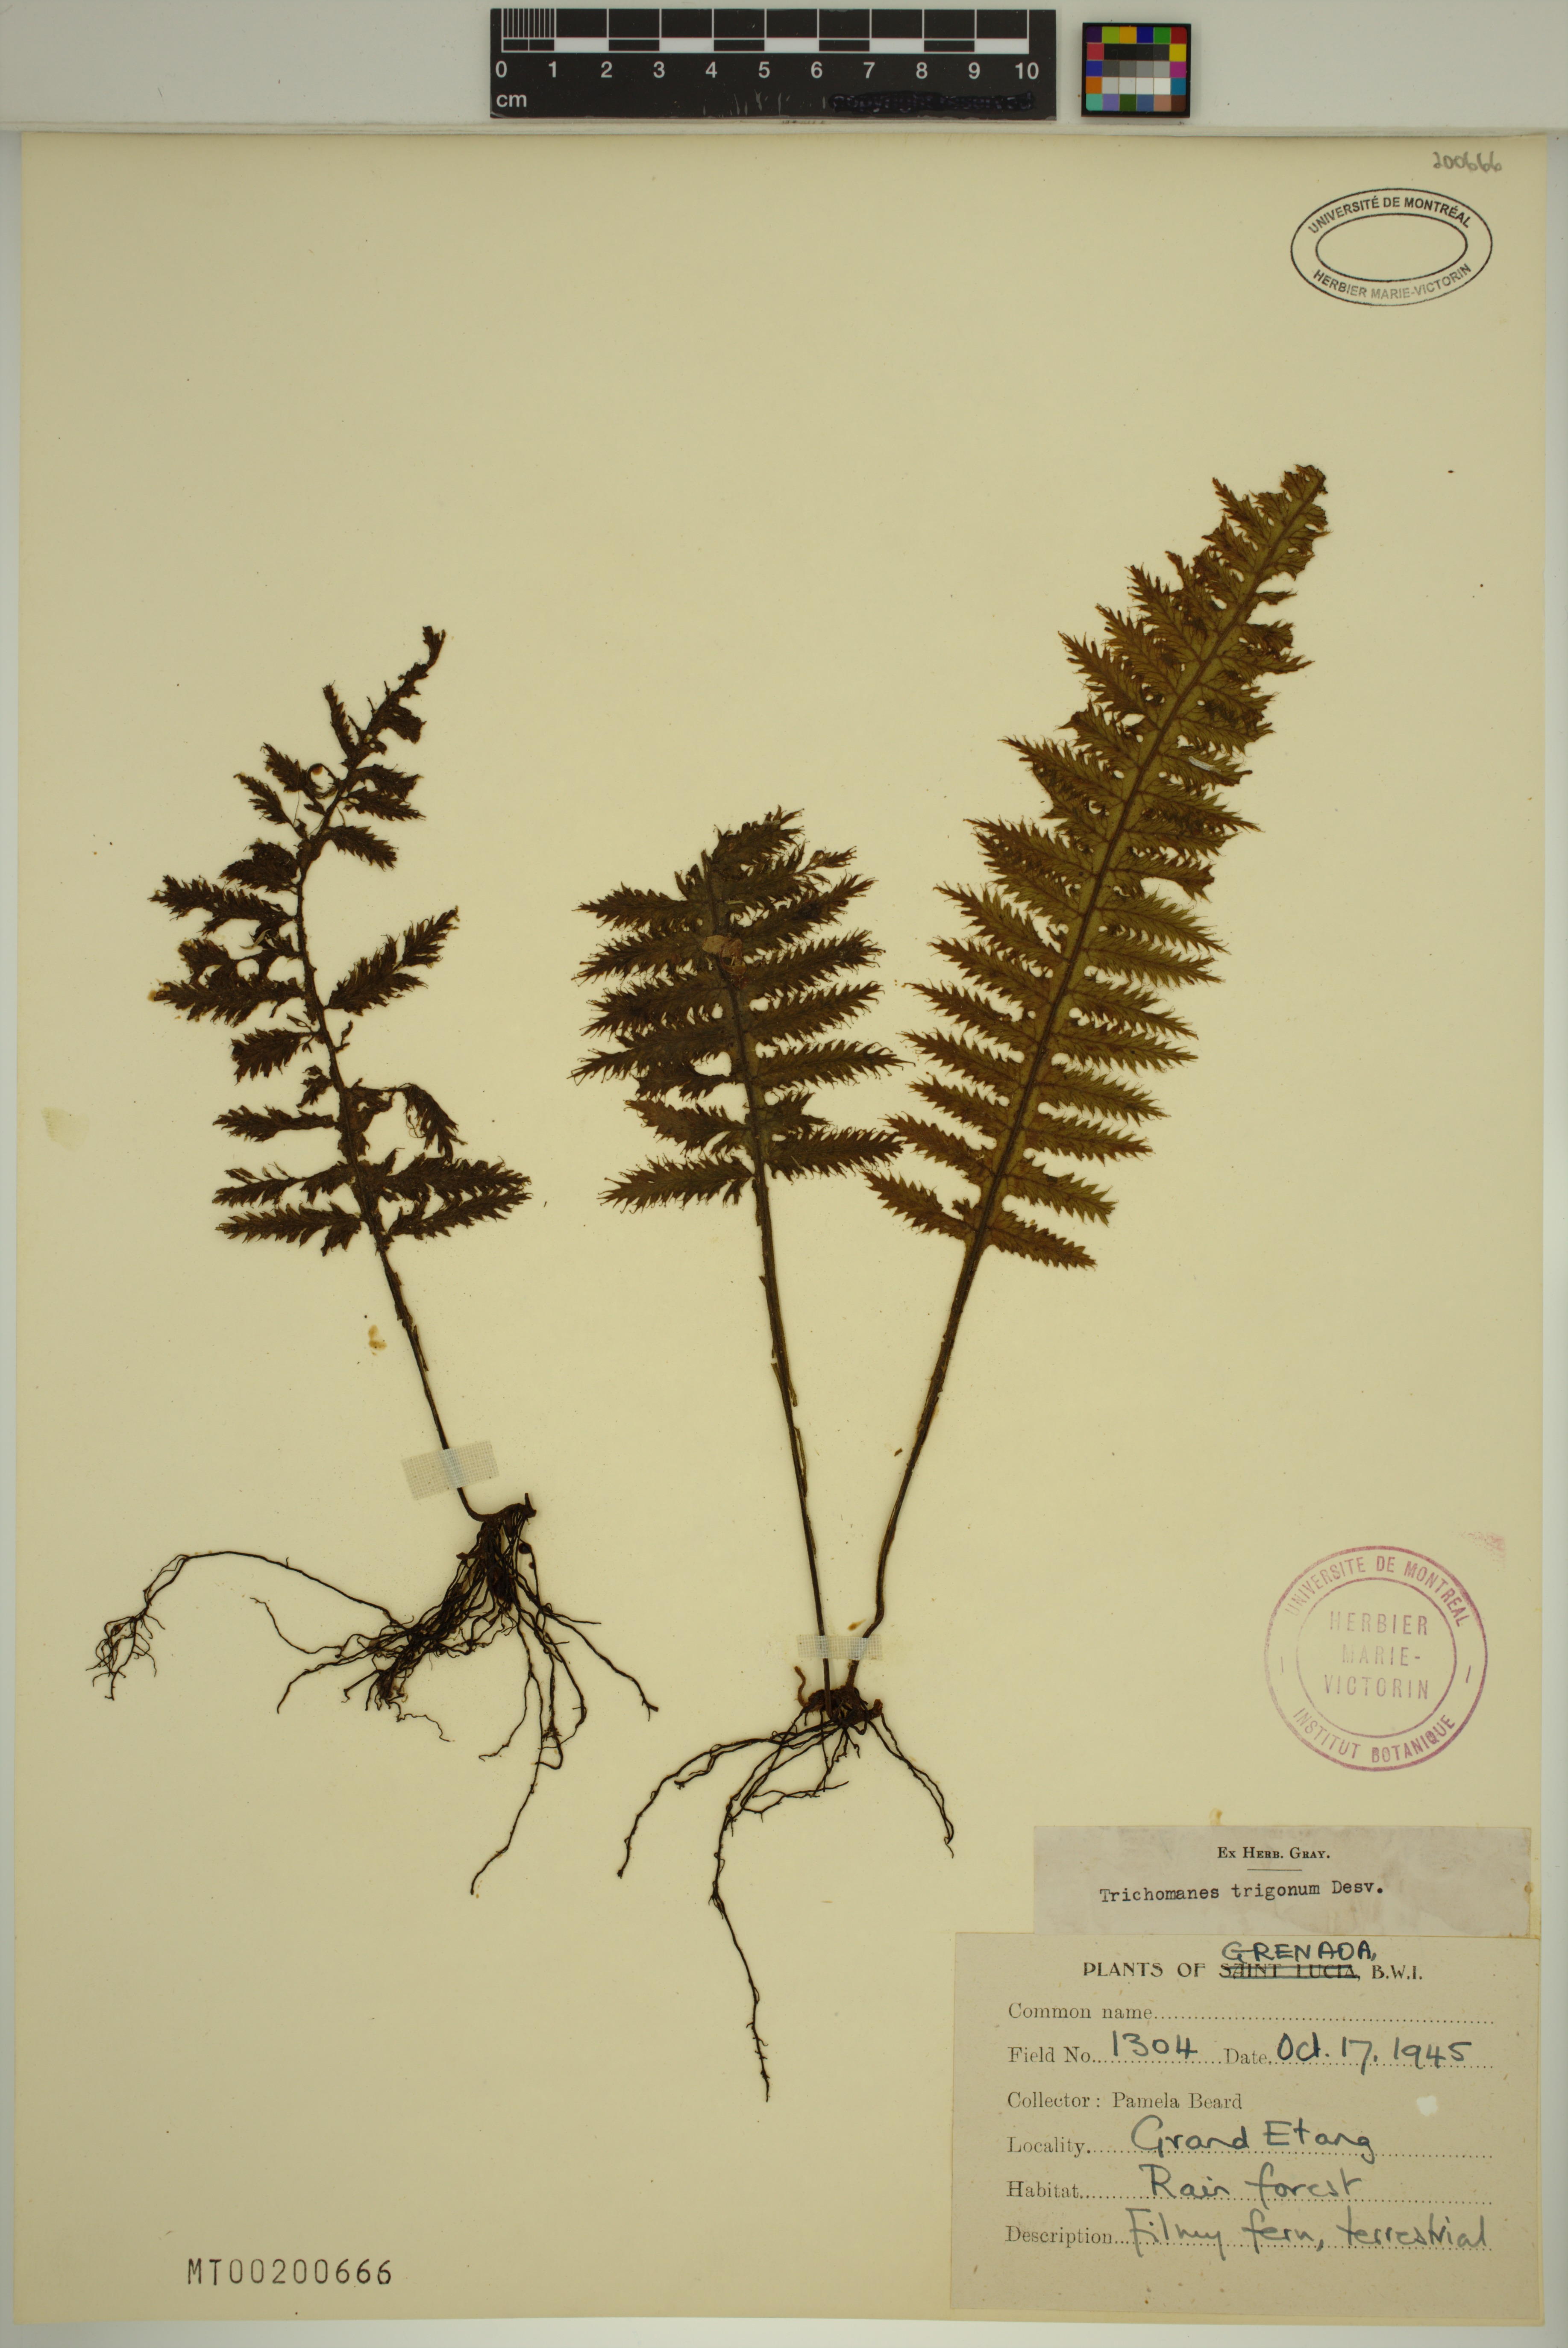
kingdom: Plantae
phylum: Tracheophyta
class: Polypodiopsida
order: Hymenophyllales
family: Hymenophyllaceae
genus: Trichomanes
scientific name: Trichomanes trigonum
